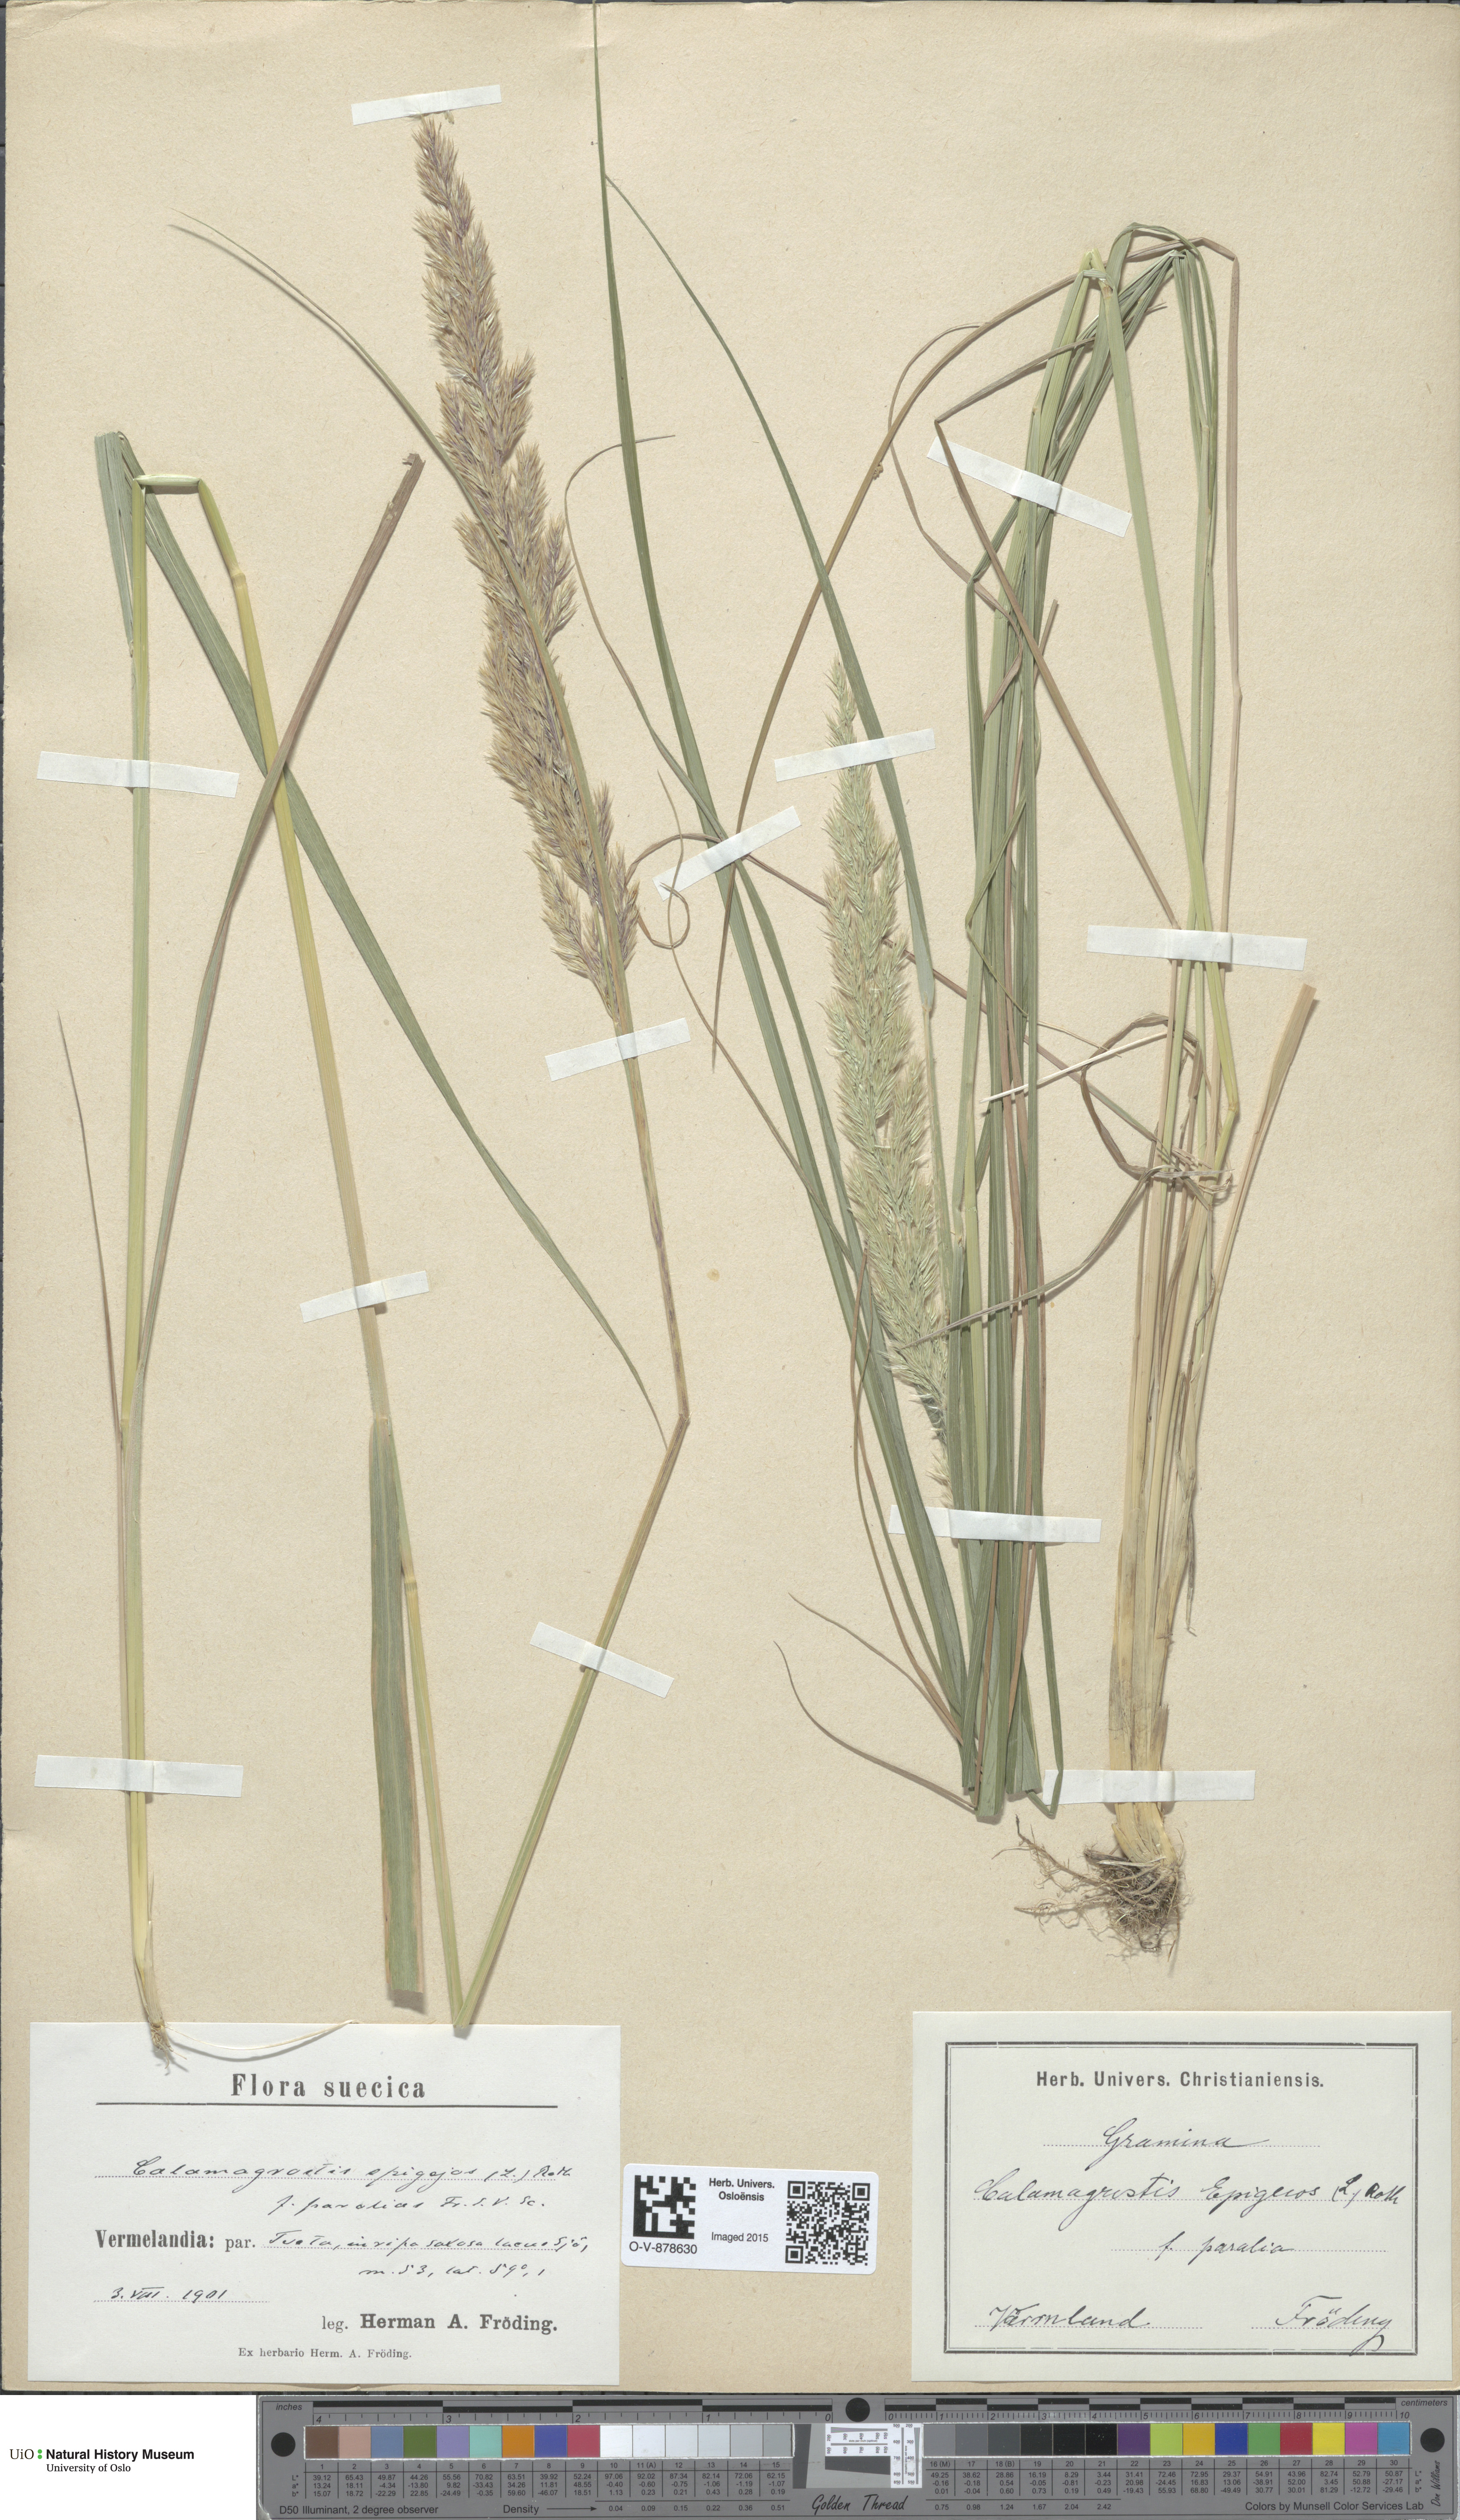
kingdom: Plantae
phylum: Tracheophyta
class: Liliopsida
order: Poales
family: Poaceae
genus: Calamagrostis
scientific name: Calamagrostis epigejos
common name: Wood small-reed
